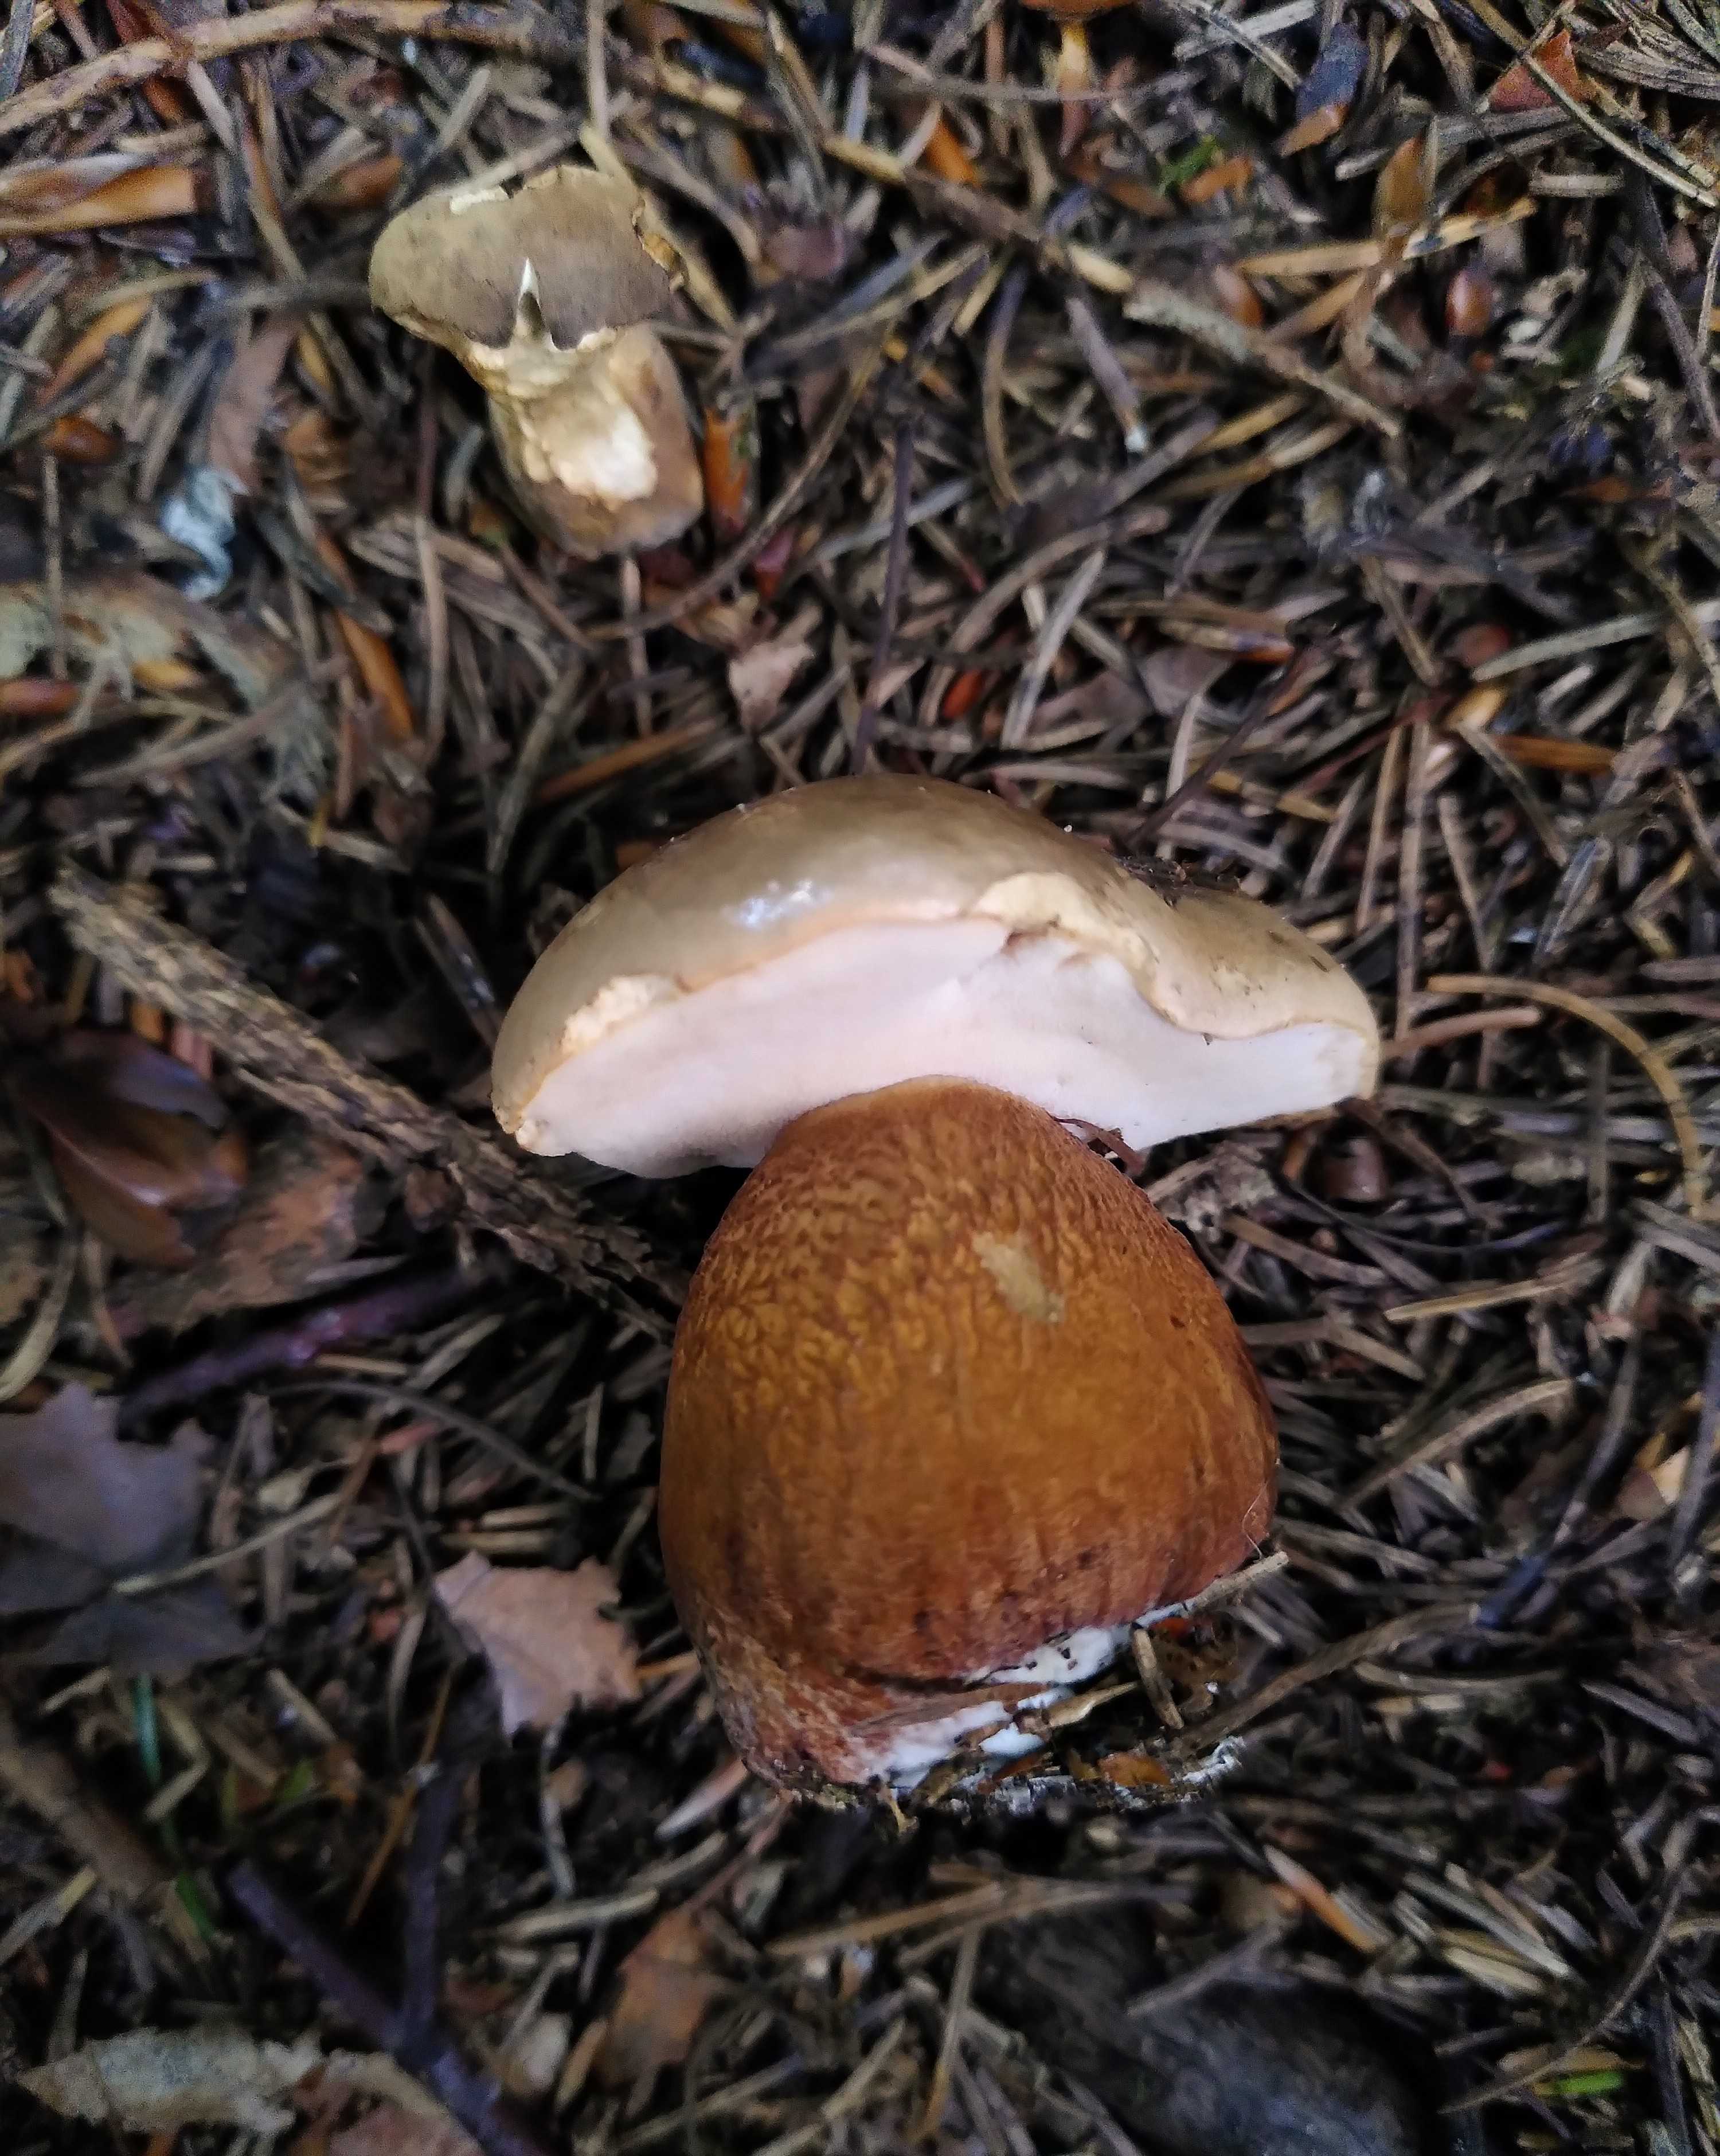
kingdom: Fungi
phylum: Basidiomycota
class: Agaricomycetes
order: Boletales
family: Boletaceae
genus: Tylopilus
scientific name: Tylopilus felleus
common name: galderørhat
